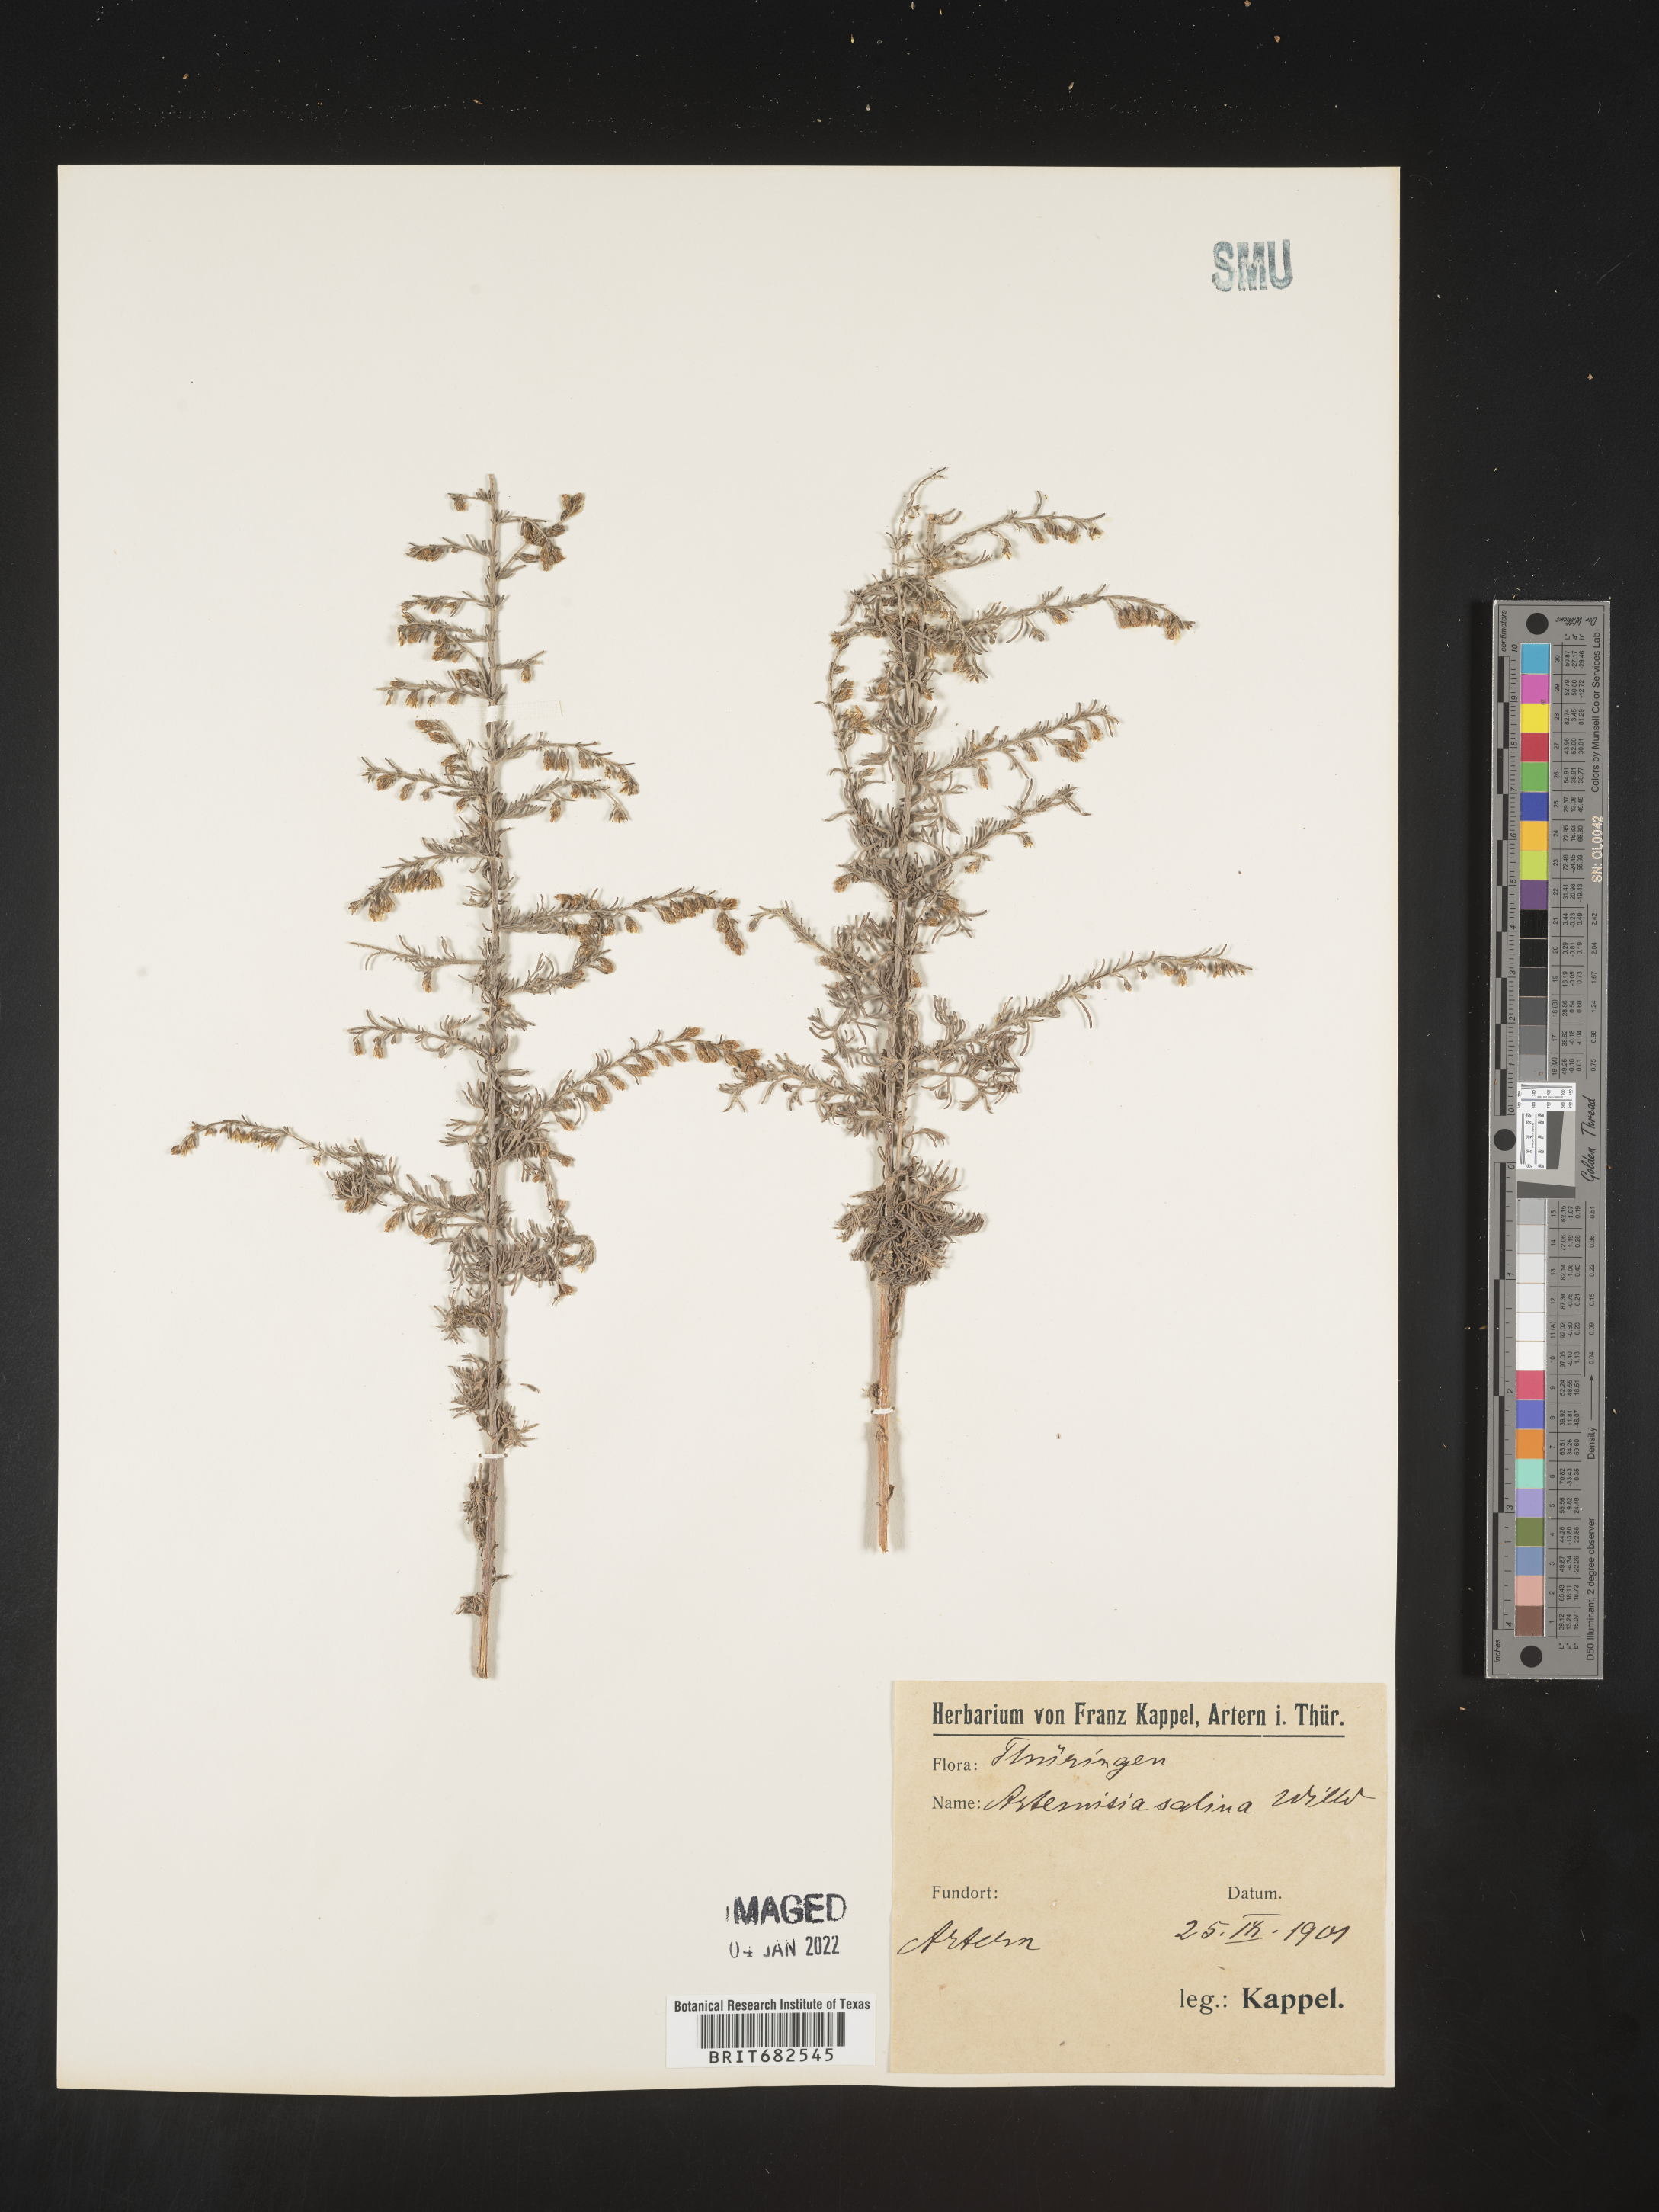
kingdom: Plantae
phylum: Tracheophyta
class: Magnoliopsida
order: Asterales
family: Asteraceae
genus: Artemisia
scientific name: Artemisia
